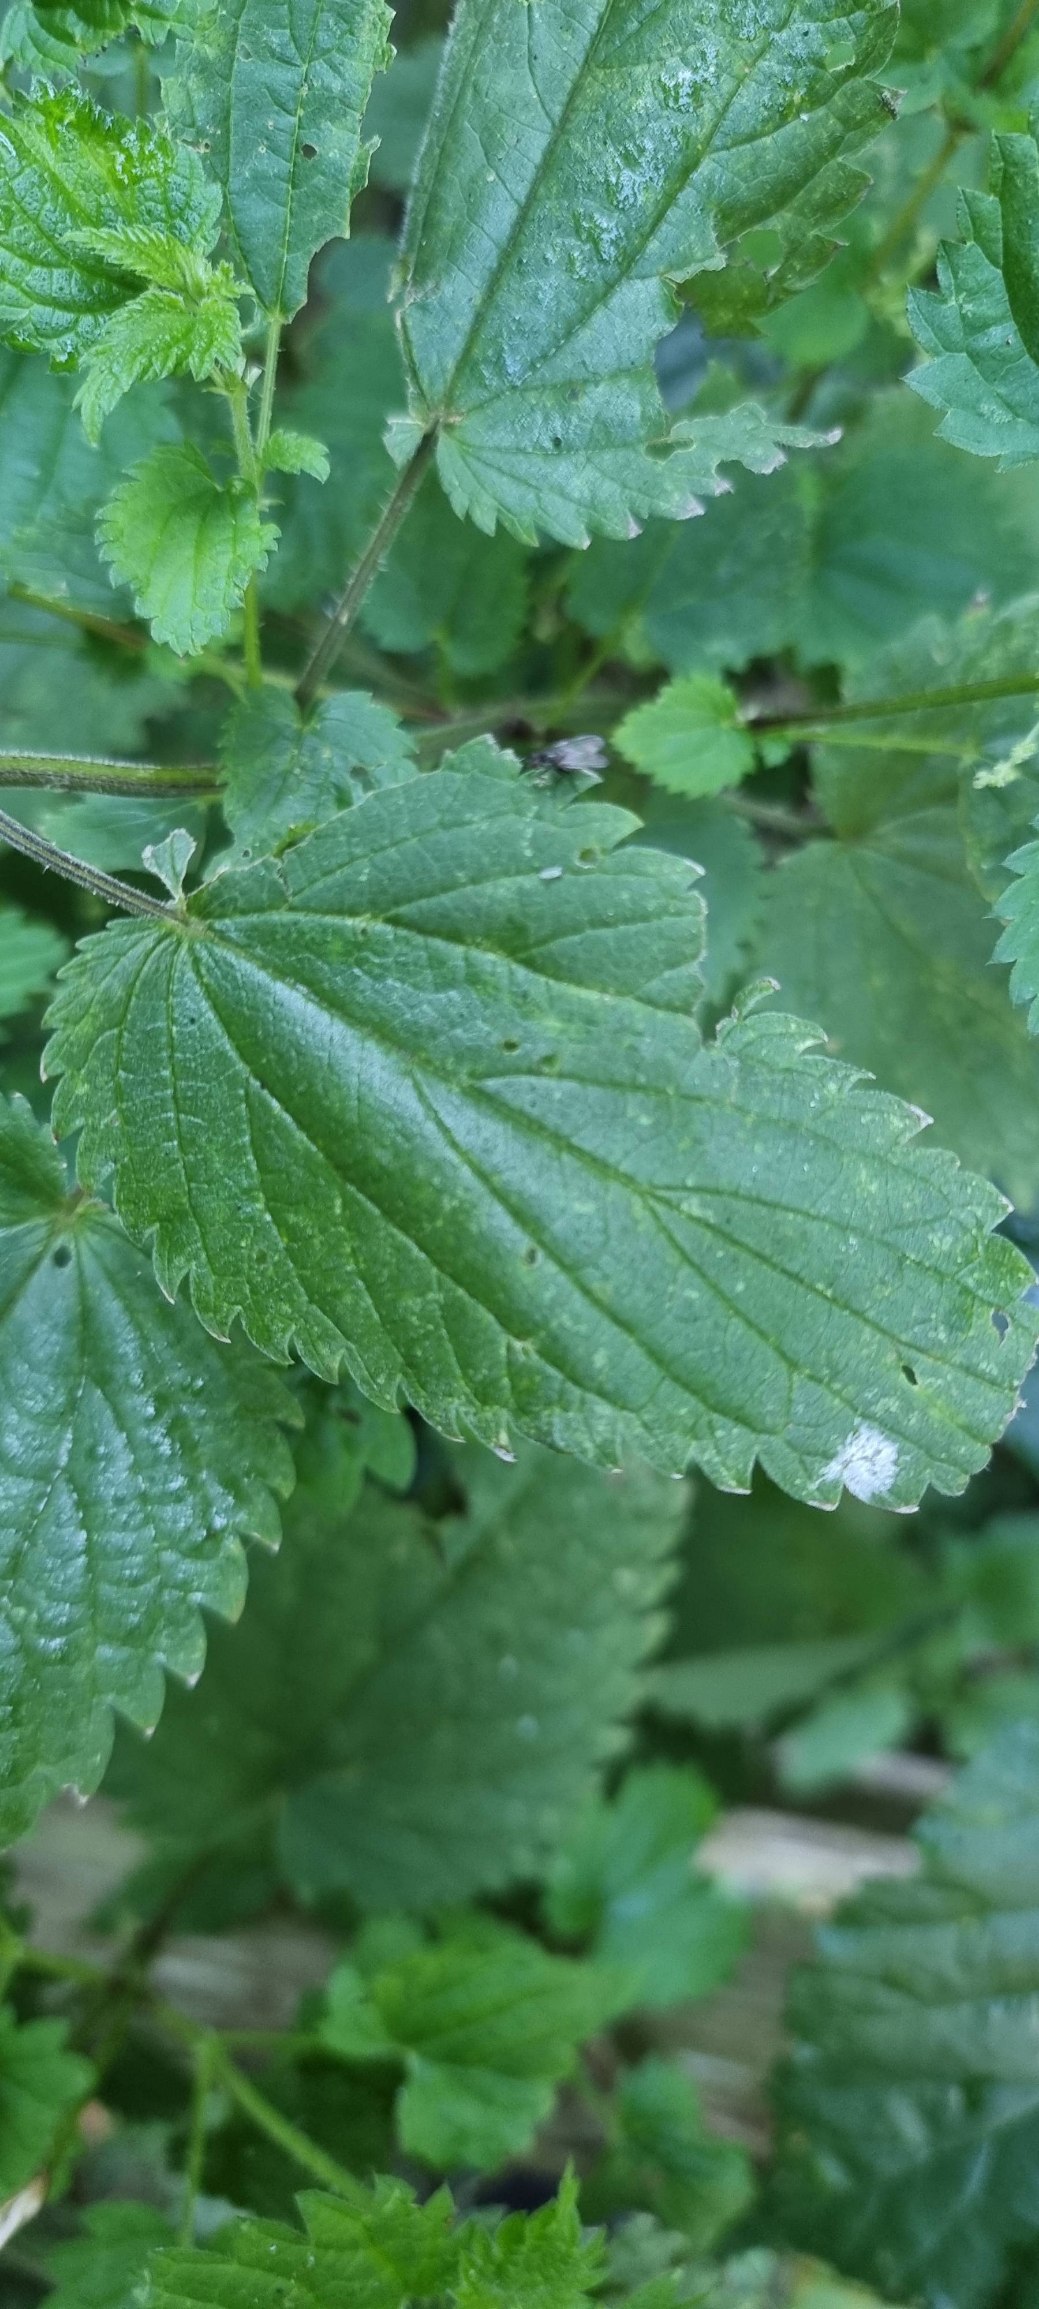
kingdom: Plantae
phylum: Tracheophyta
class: Magnoliopsida
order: Rosales
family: Urticaceae
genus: Urtica
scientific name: Urtica dioica
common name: Stor nælde
